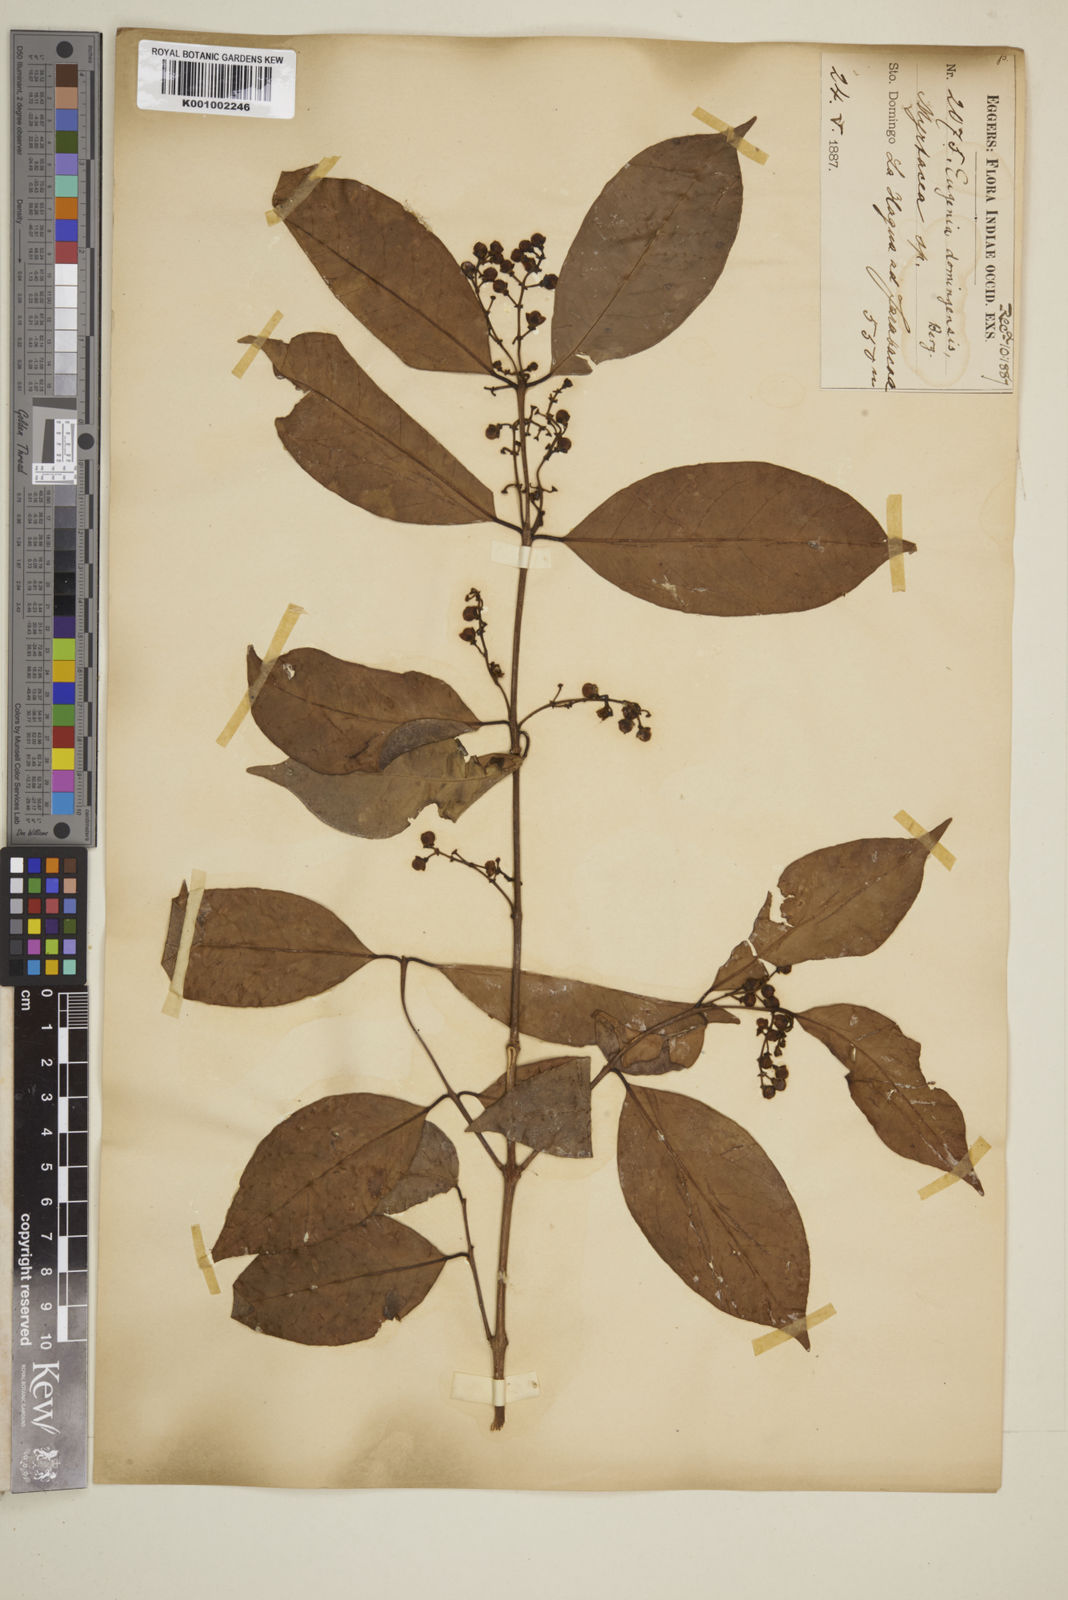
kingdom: Plantae
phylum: Tracheophyta
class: Magnoliopsida
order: Myrtales
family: Myrtaceae
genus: Eugenia
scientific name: Eugenia domingensis
